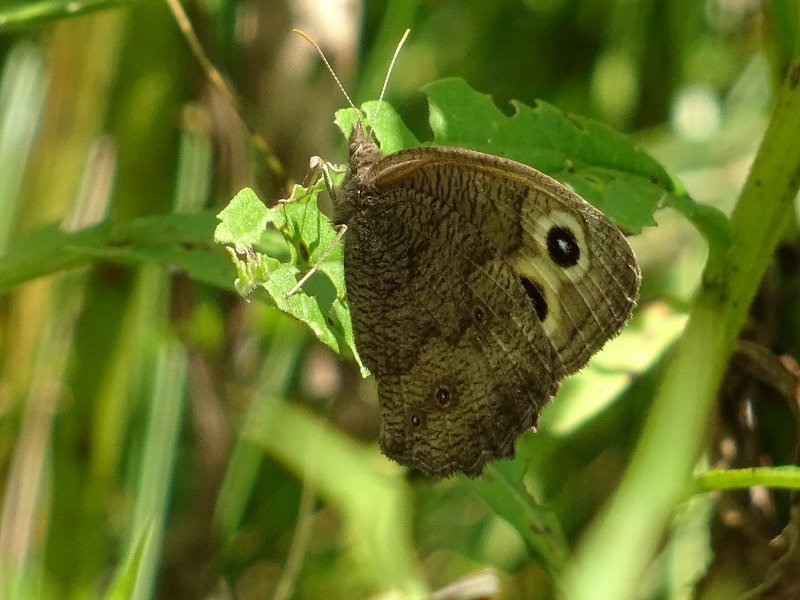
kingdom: Animalia
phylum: Arthropoda
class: Insecta
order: Lepidoptera
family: Nymphalidae
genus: Cercyonis
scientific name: Cercyonis pegala
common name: Common Wood-Nymph
